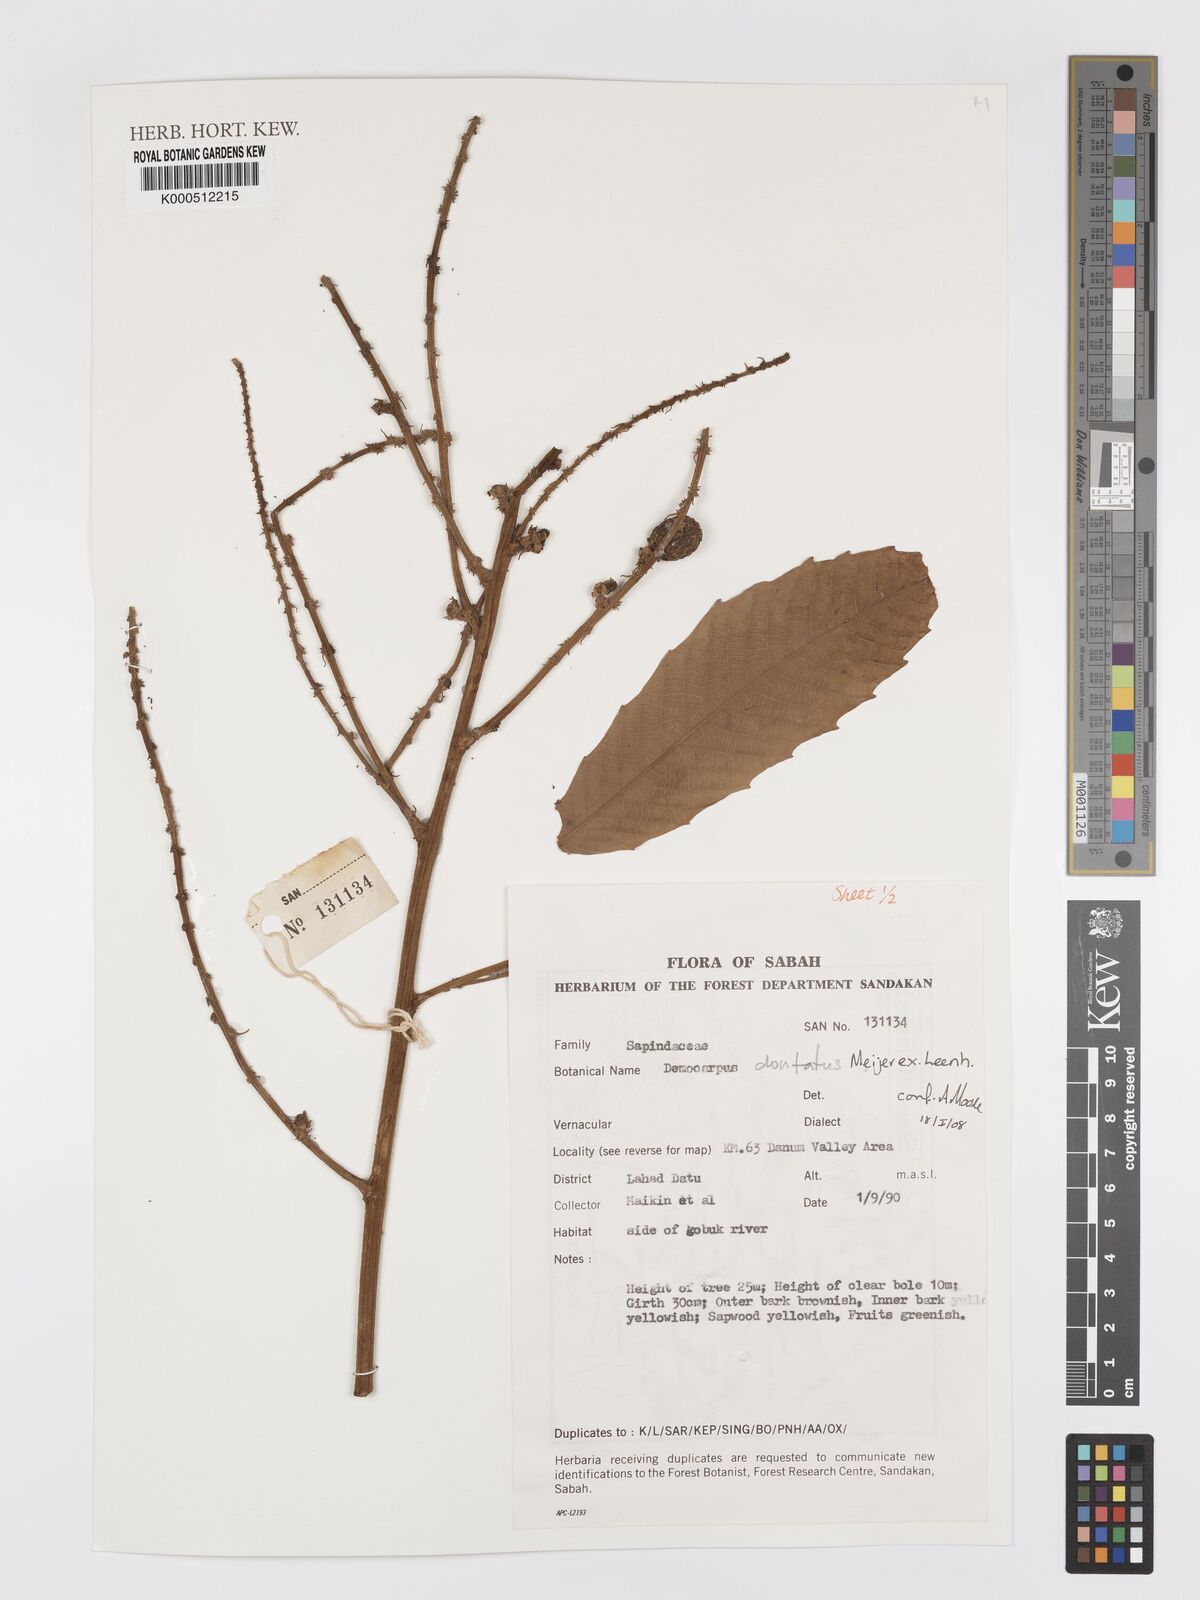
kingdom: Plantae
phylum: Tracheophyta
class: Magnoliopsida
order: Sapindales
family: Sapindaceae
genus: Dimocarpus
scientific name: Dimocarpus dentatus
